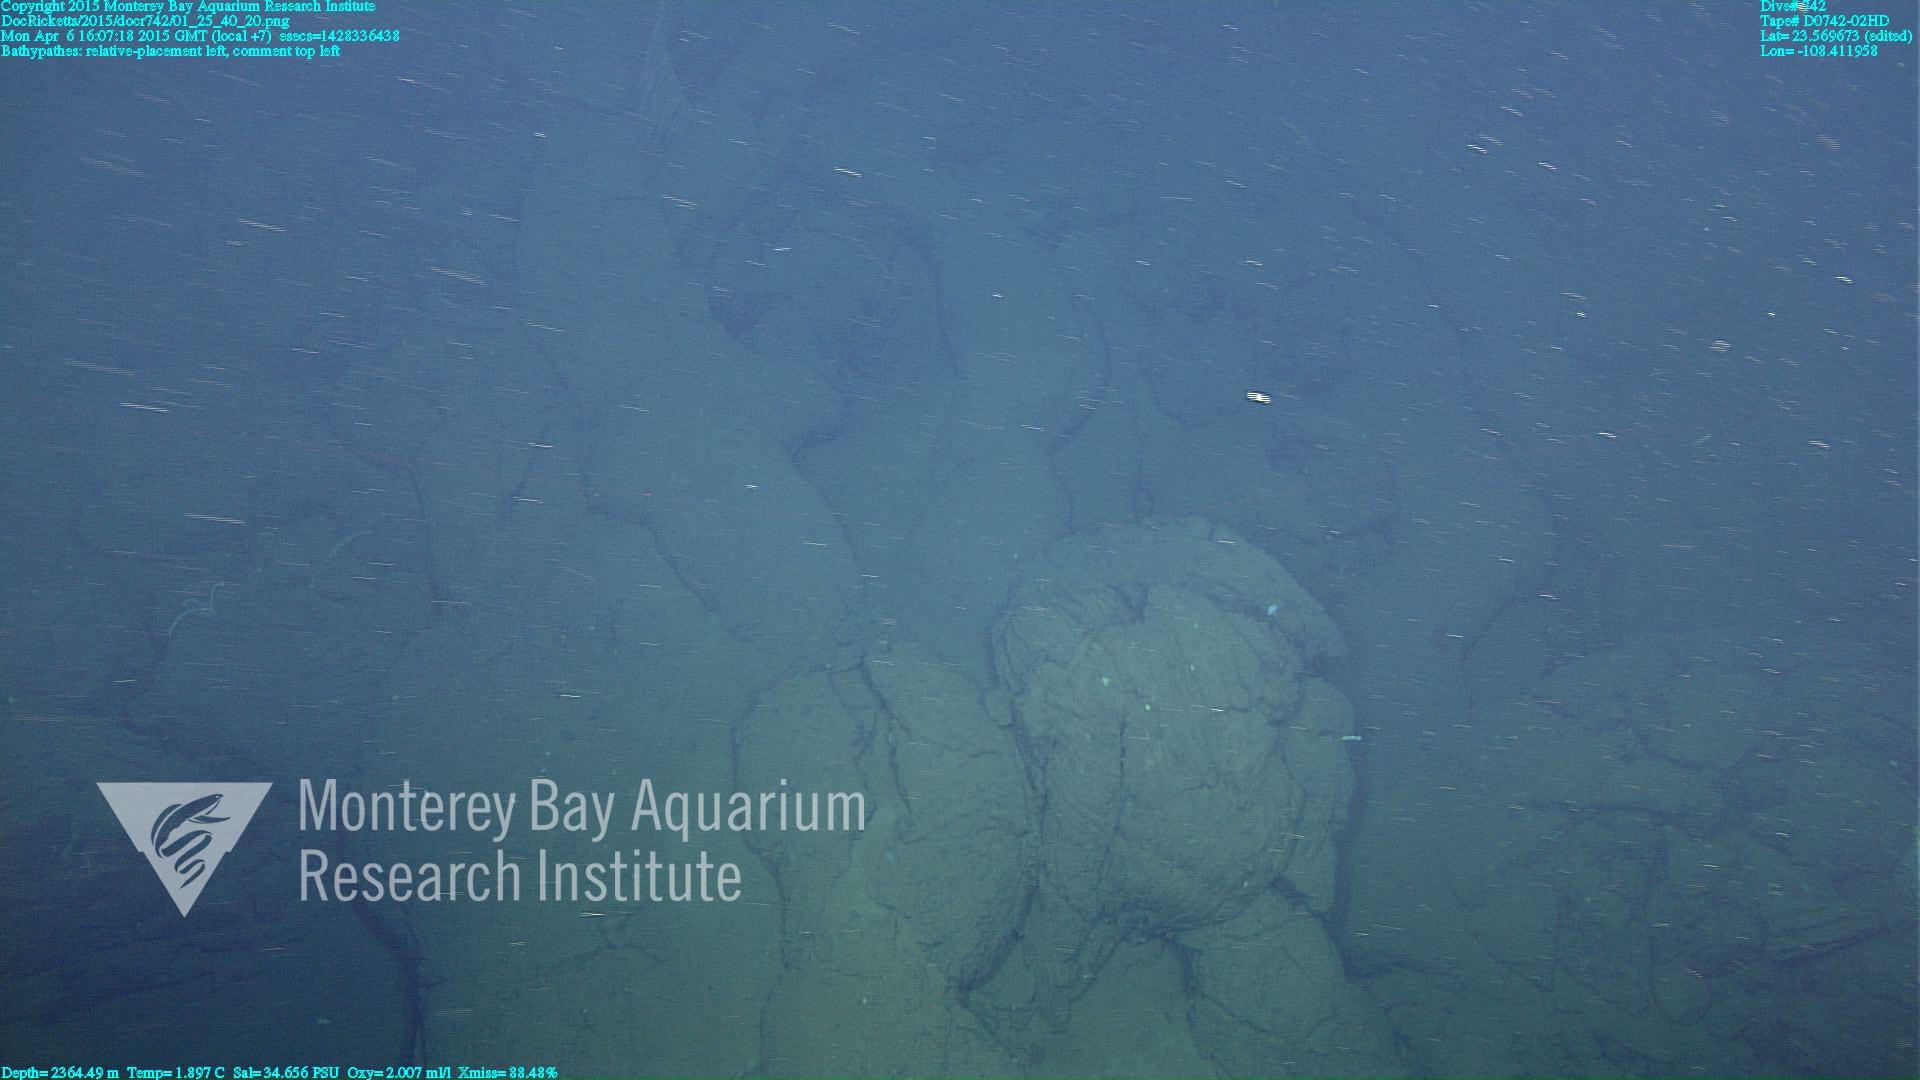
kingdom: Animalia
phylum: Cnidaria
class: Anthozoa
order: Antipatharia
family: Schizopathidae
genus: Bathypathes
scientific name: Bathypathes
